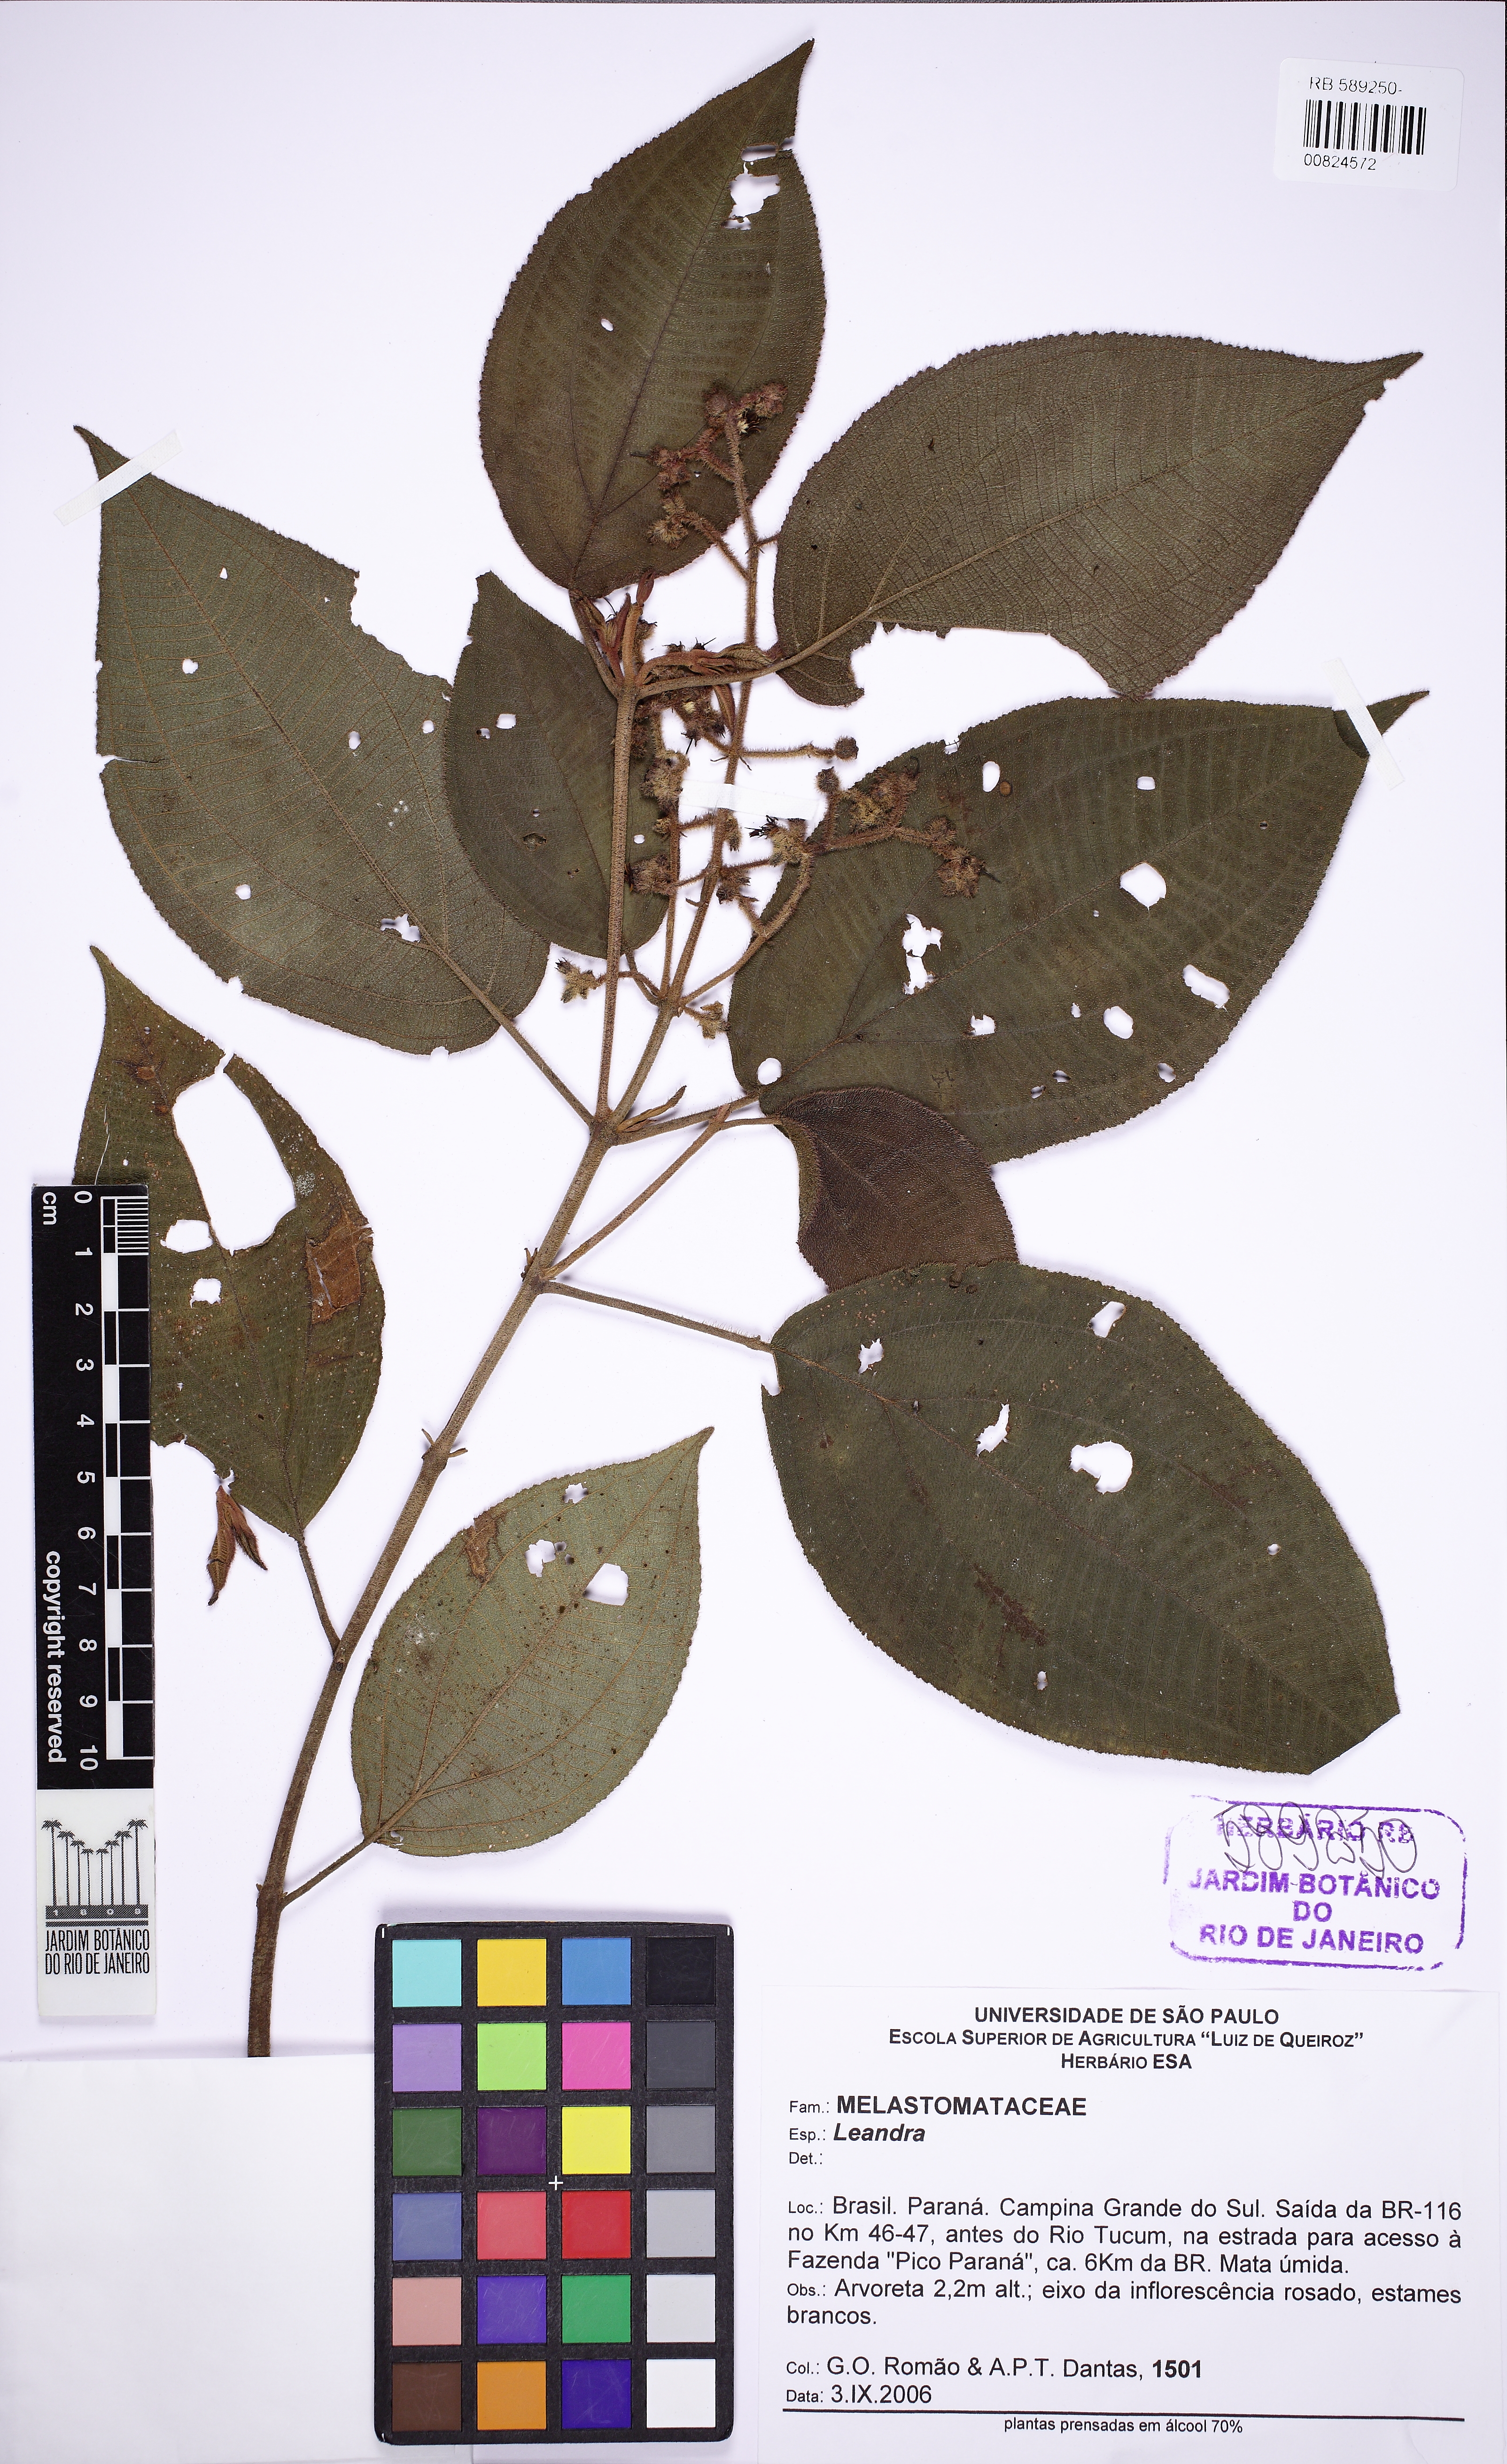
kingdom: Plantae
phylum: Tracheophyta
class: Magnoliopsida
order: Myrtales
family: Melastomataceae
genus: Miconia
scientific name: Miconia
